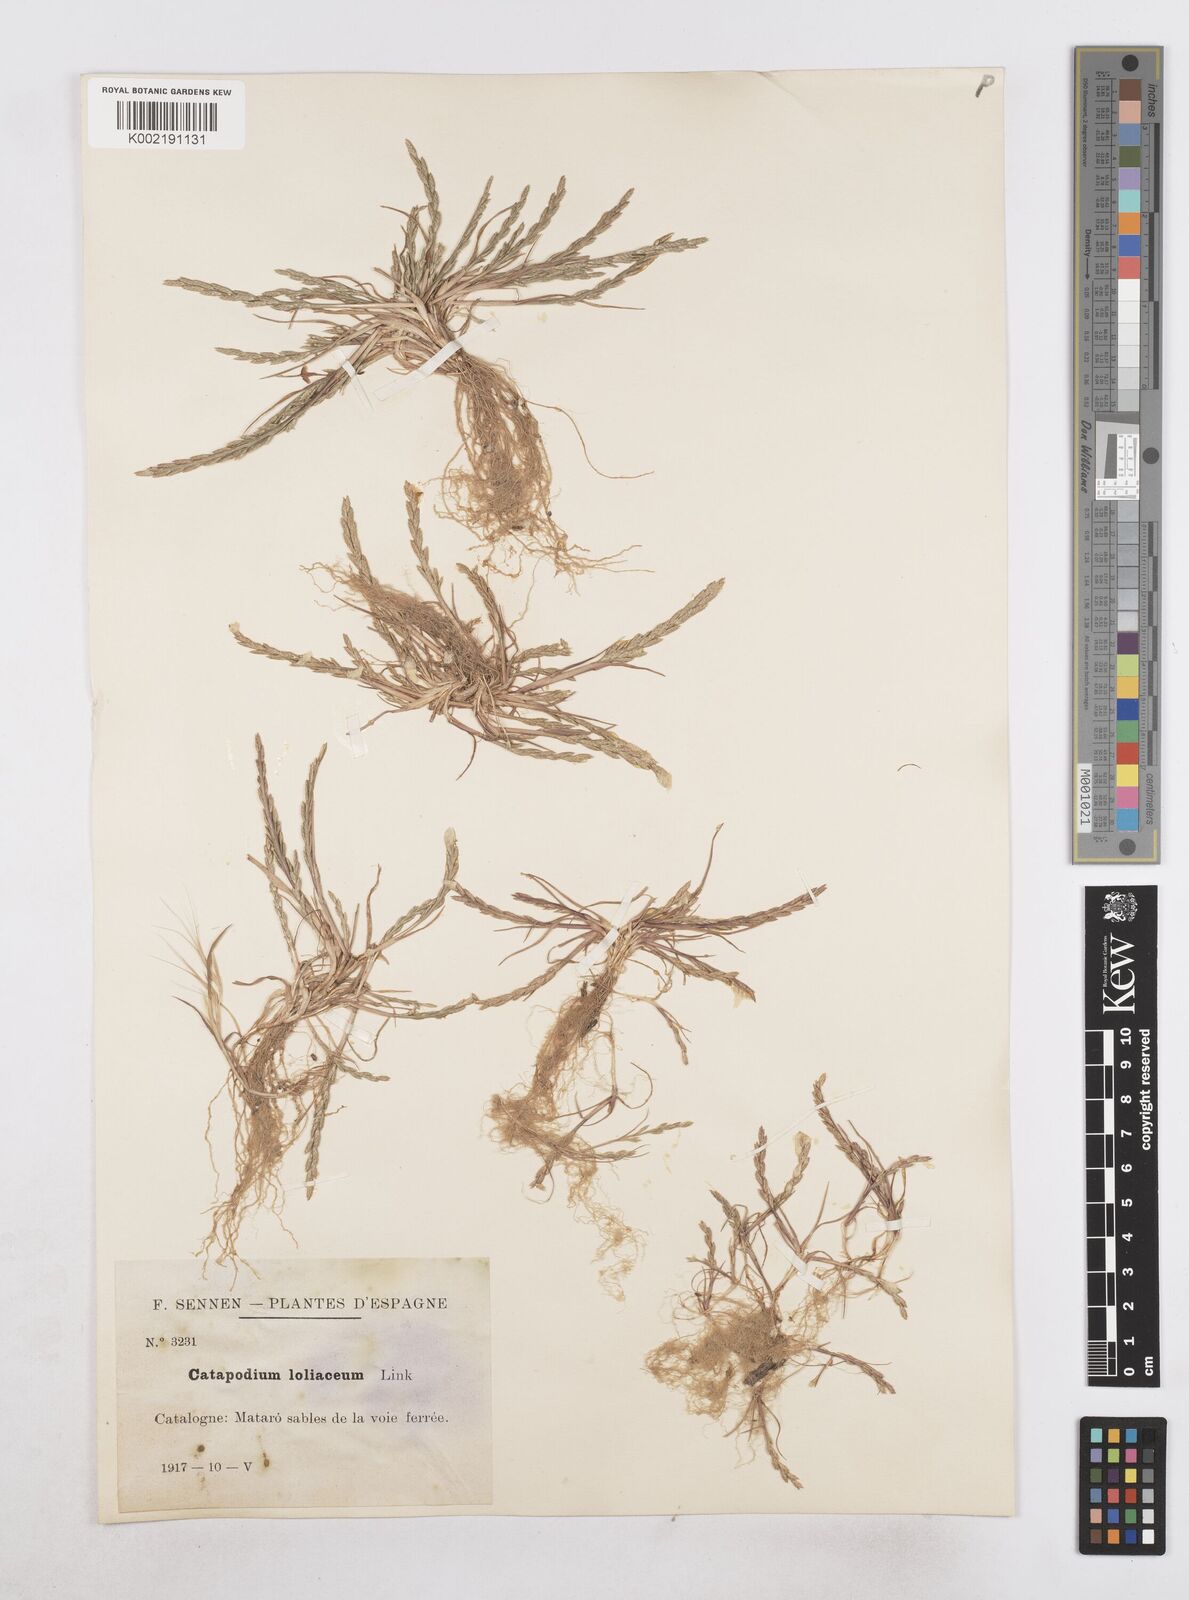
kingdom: Plantae
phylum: Tracheophyta
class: Liliopsida
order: Poales
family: Poaceae
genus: Catapodium
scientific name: Catapodium marinum
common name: Sea fern-grass
